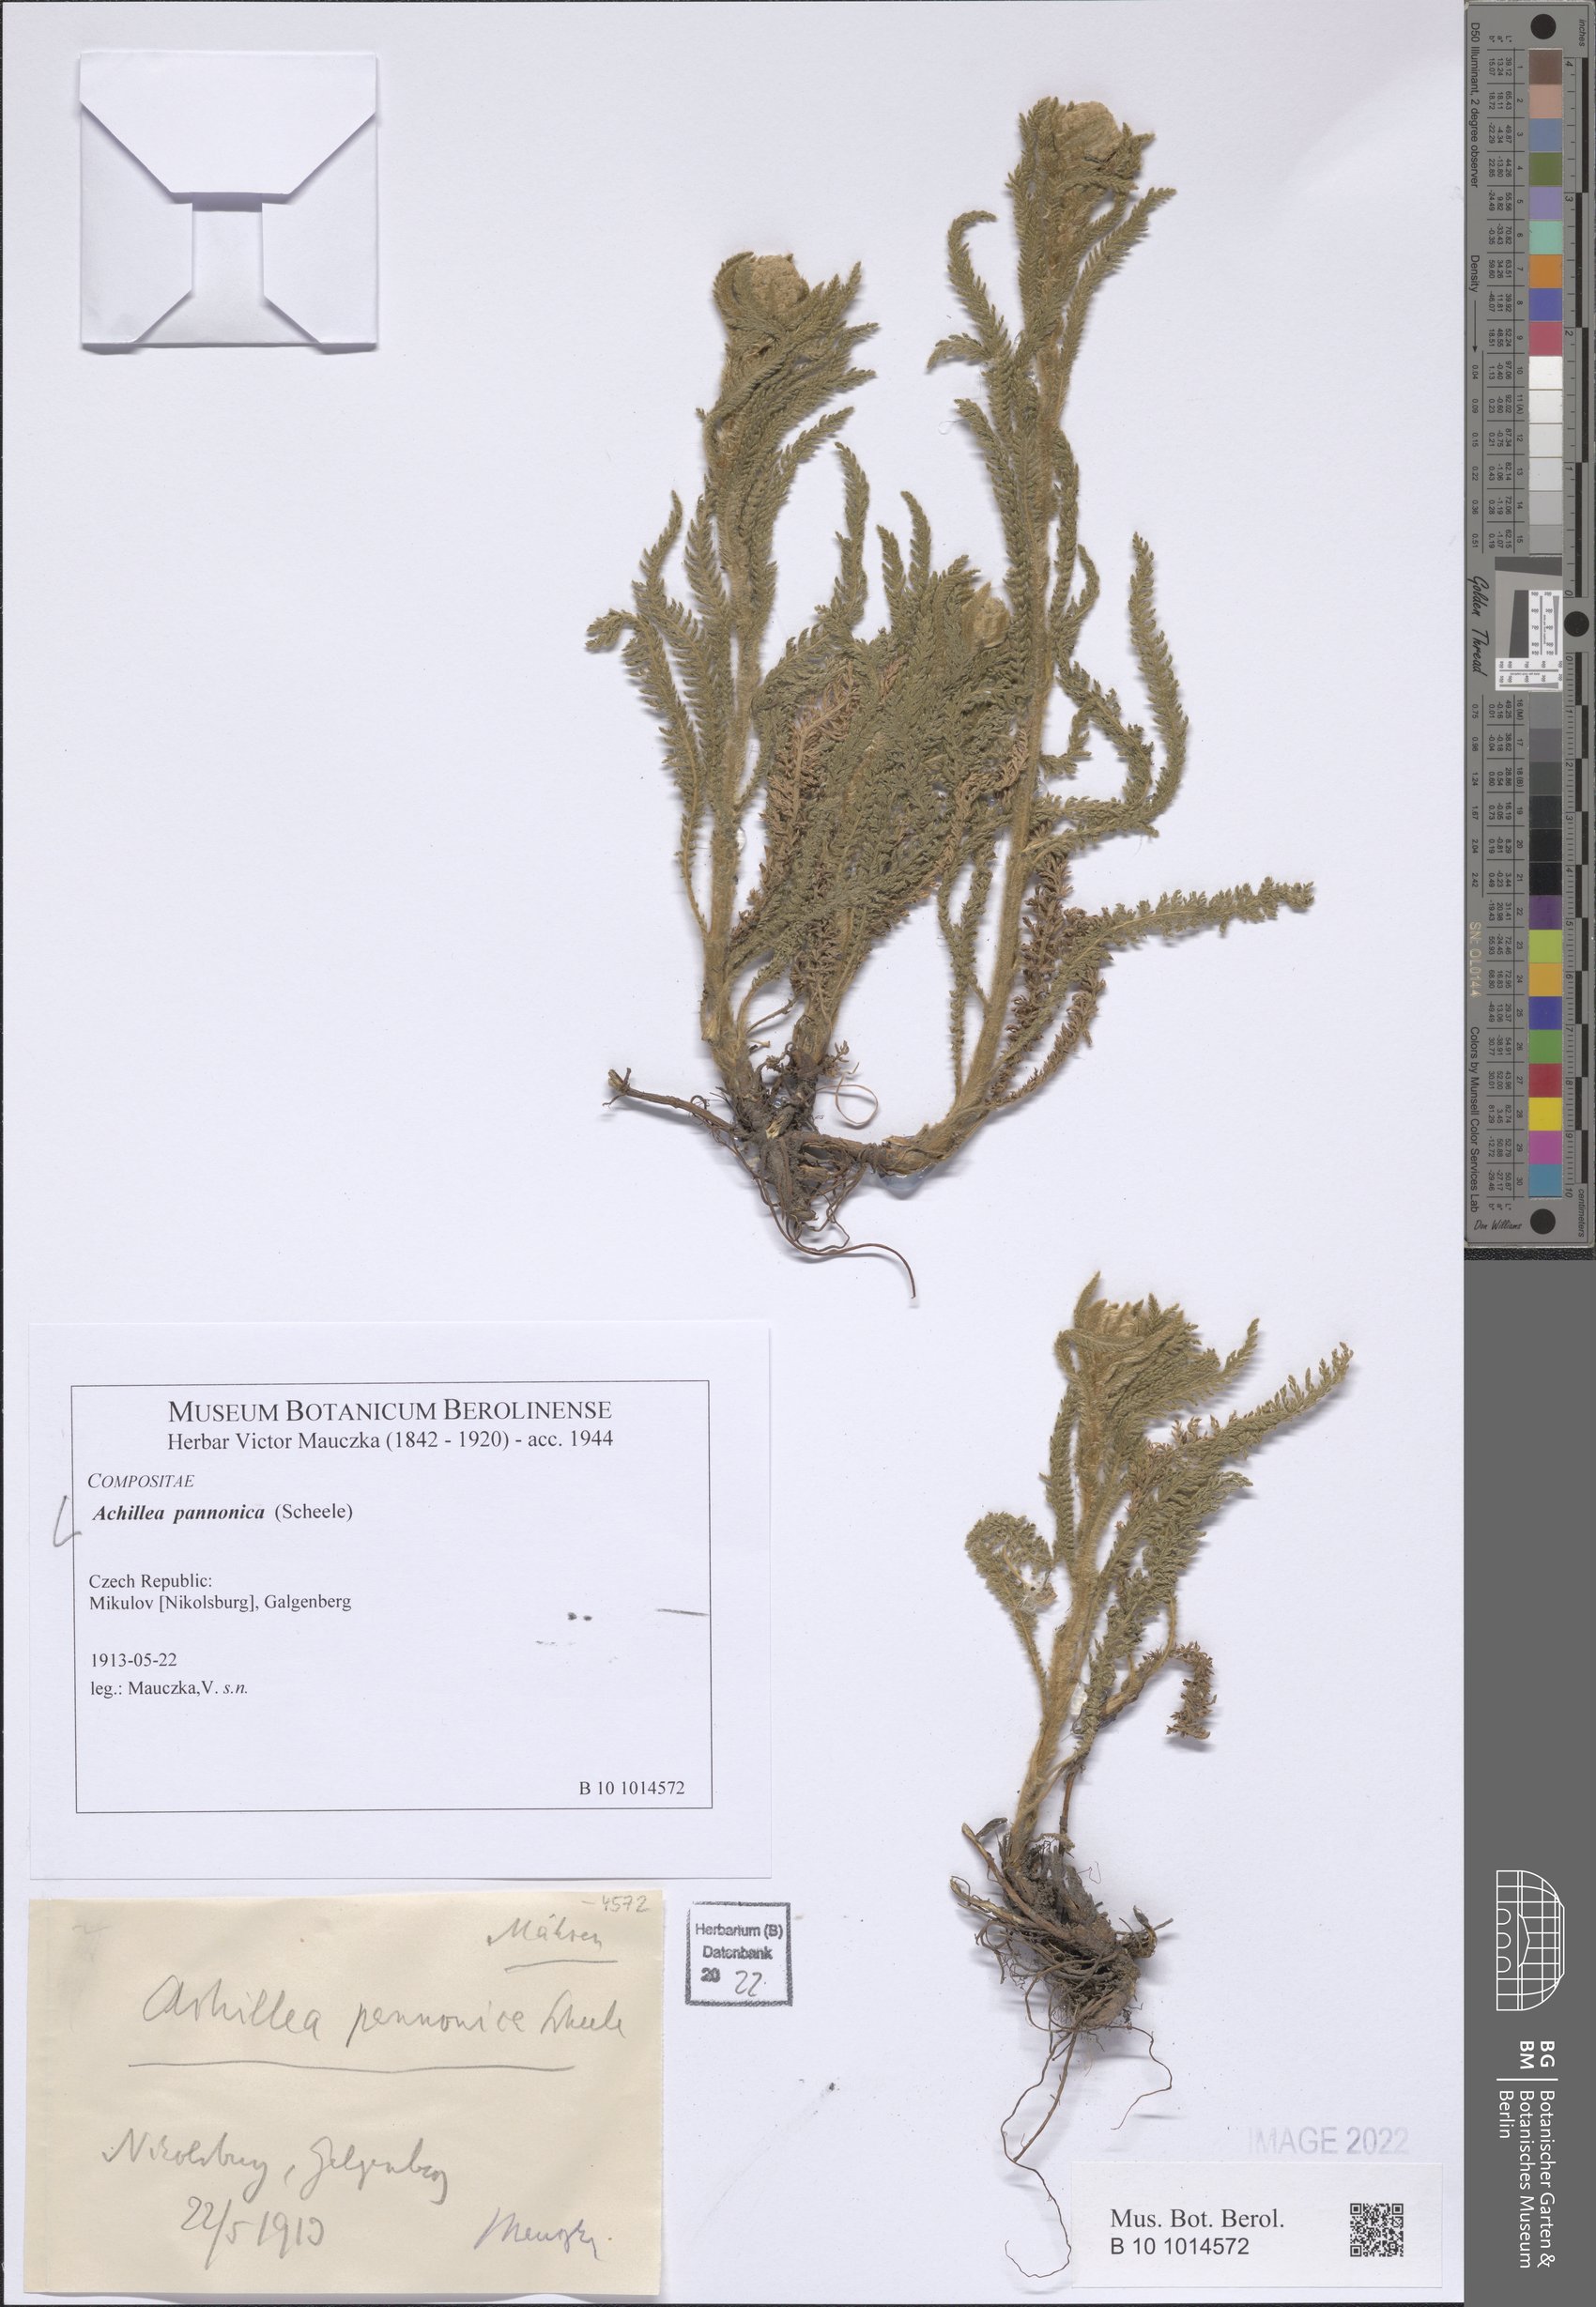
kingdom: Plantae
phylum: Tracheophyta
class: Magnoliopsida
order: Asterales
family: Asteraceae
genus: Achillea
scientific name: Achillea pannonica
